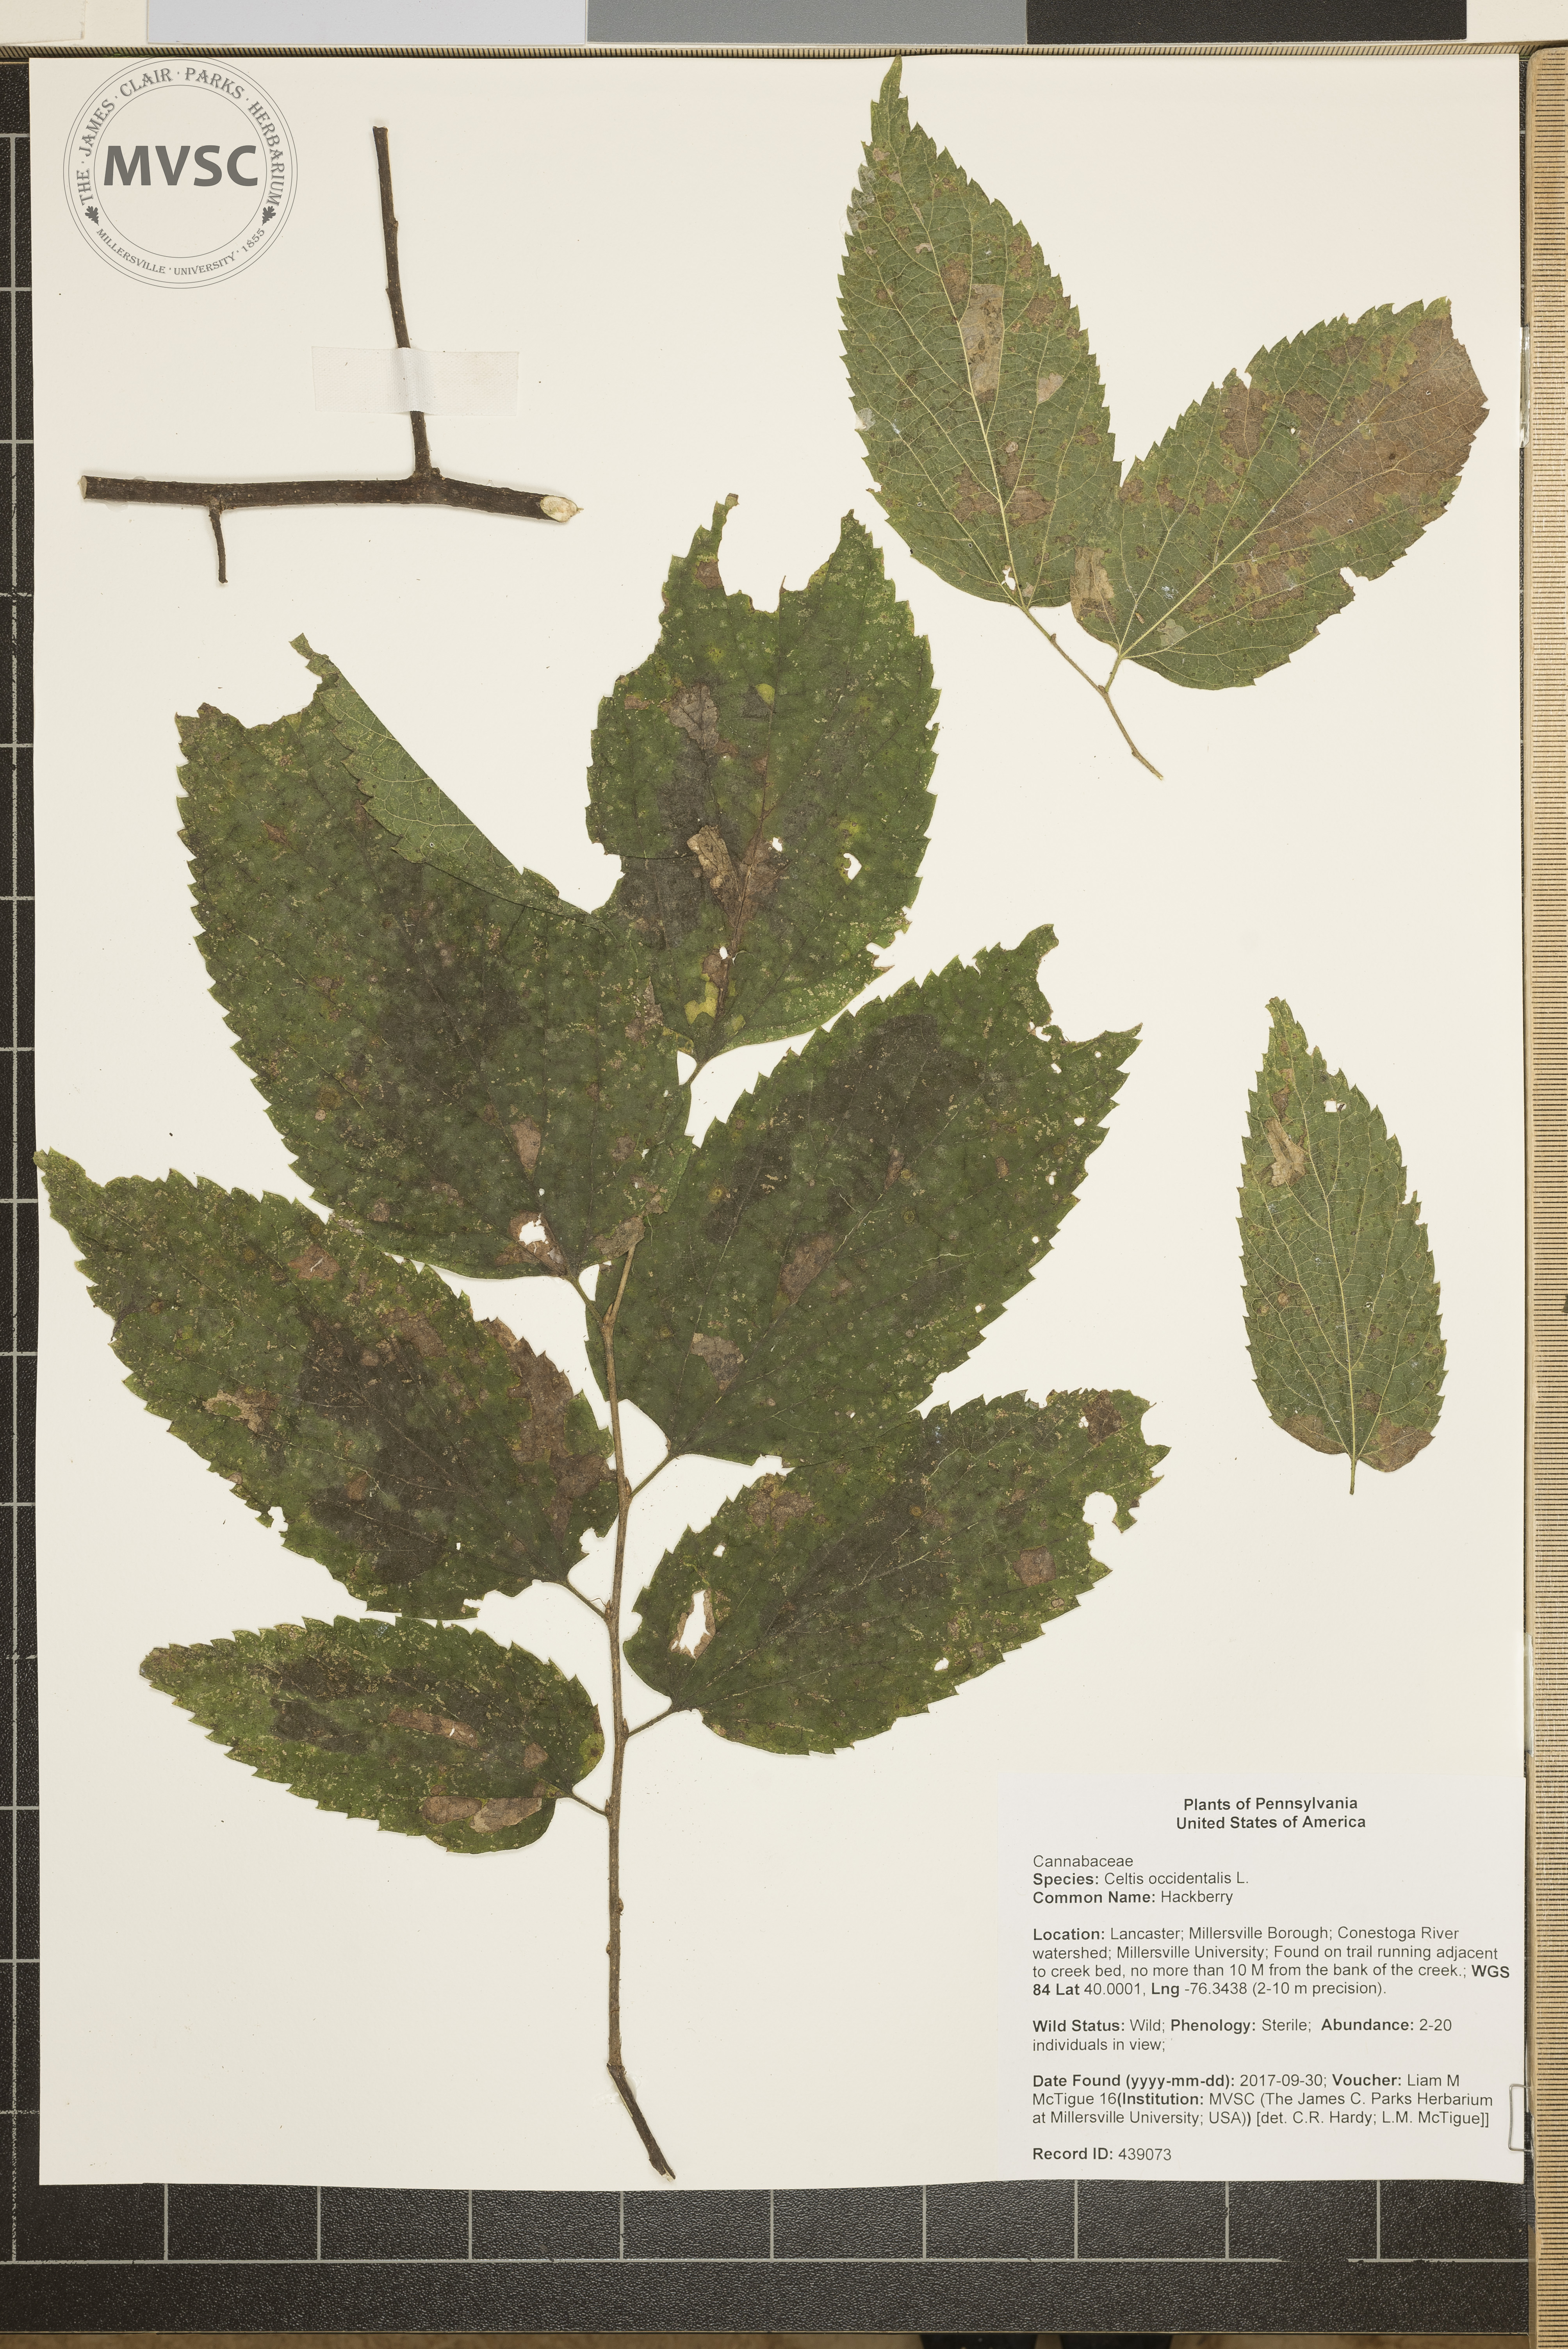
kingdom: Plantae
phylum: Tracheophyta
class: Magnoliopsida
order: Rosales
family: Cannabaceae
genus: Celtis
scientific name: Celtis occidentalis
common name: Hackberry
